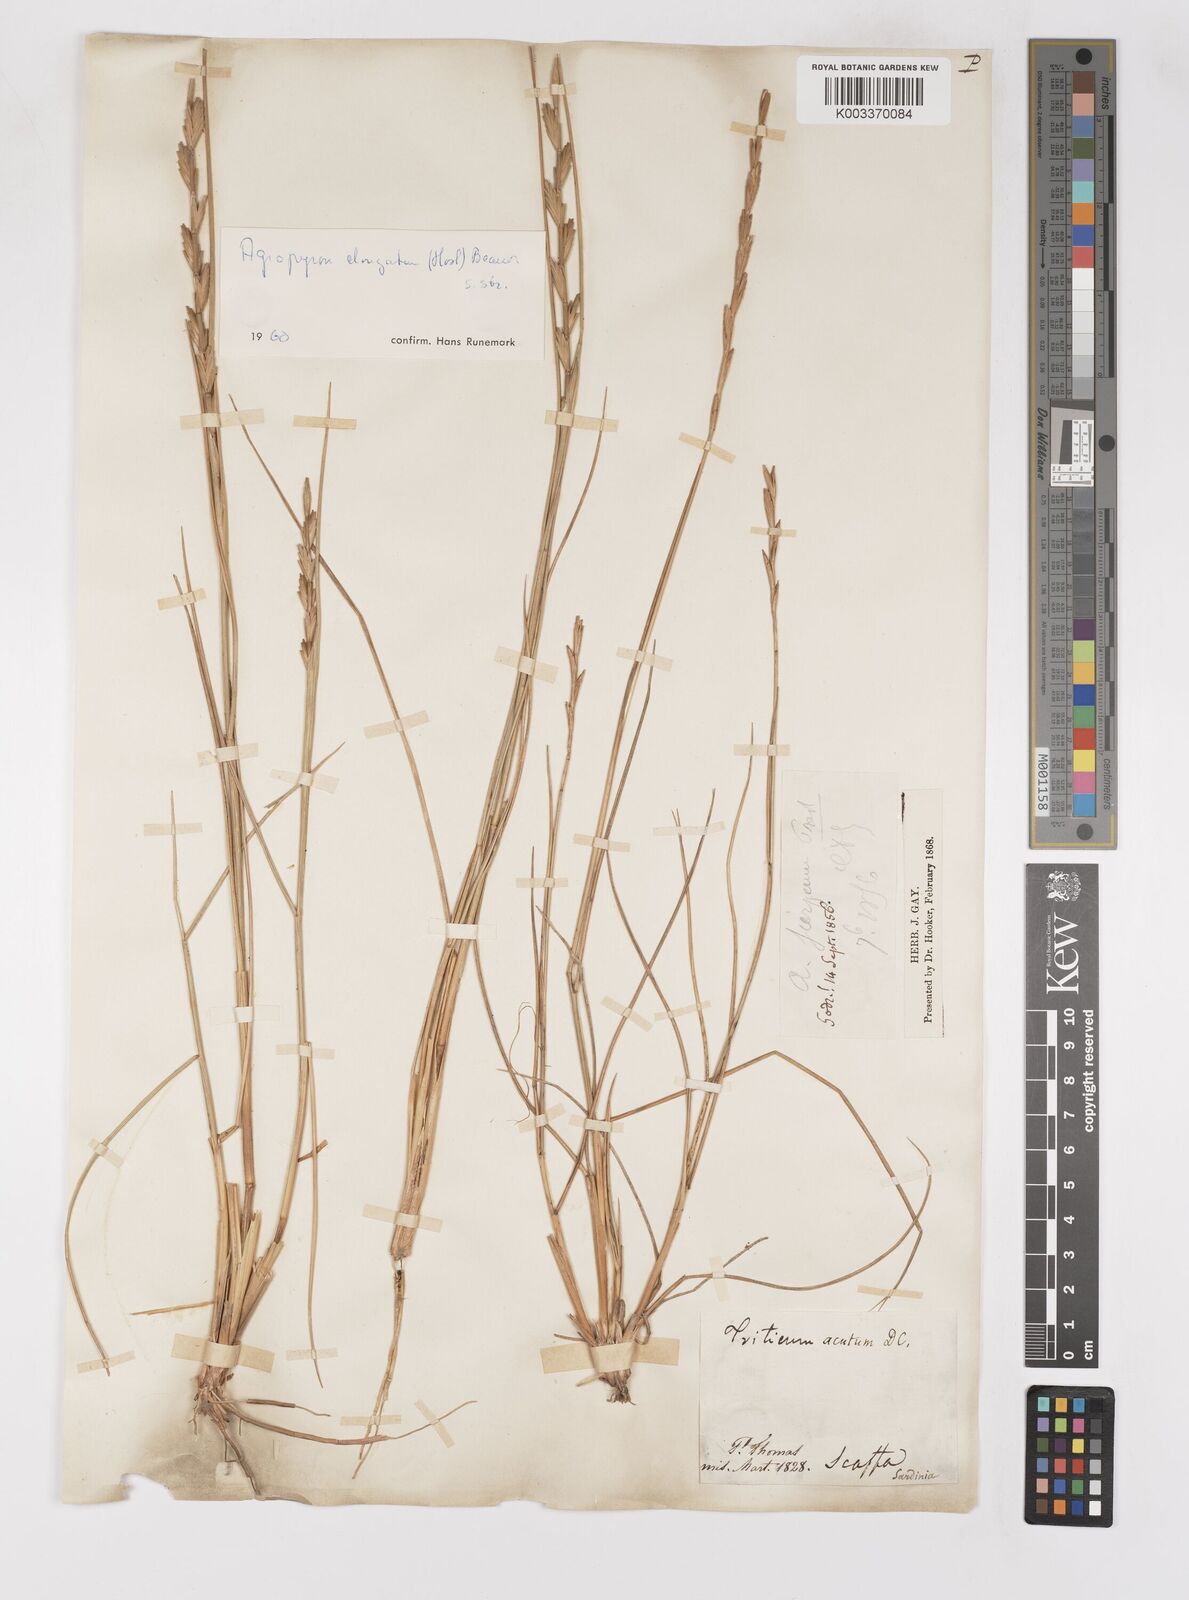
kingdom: Plantae
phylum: Tracheophyta
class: Liliopsida
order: Poales
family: Poaceae
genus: Thinopyrum
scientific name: Thinopyrum elongatum
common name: Tall wheatgrass
